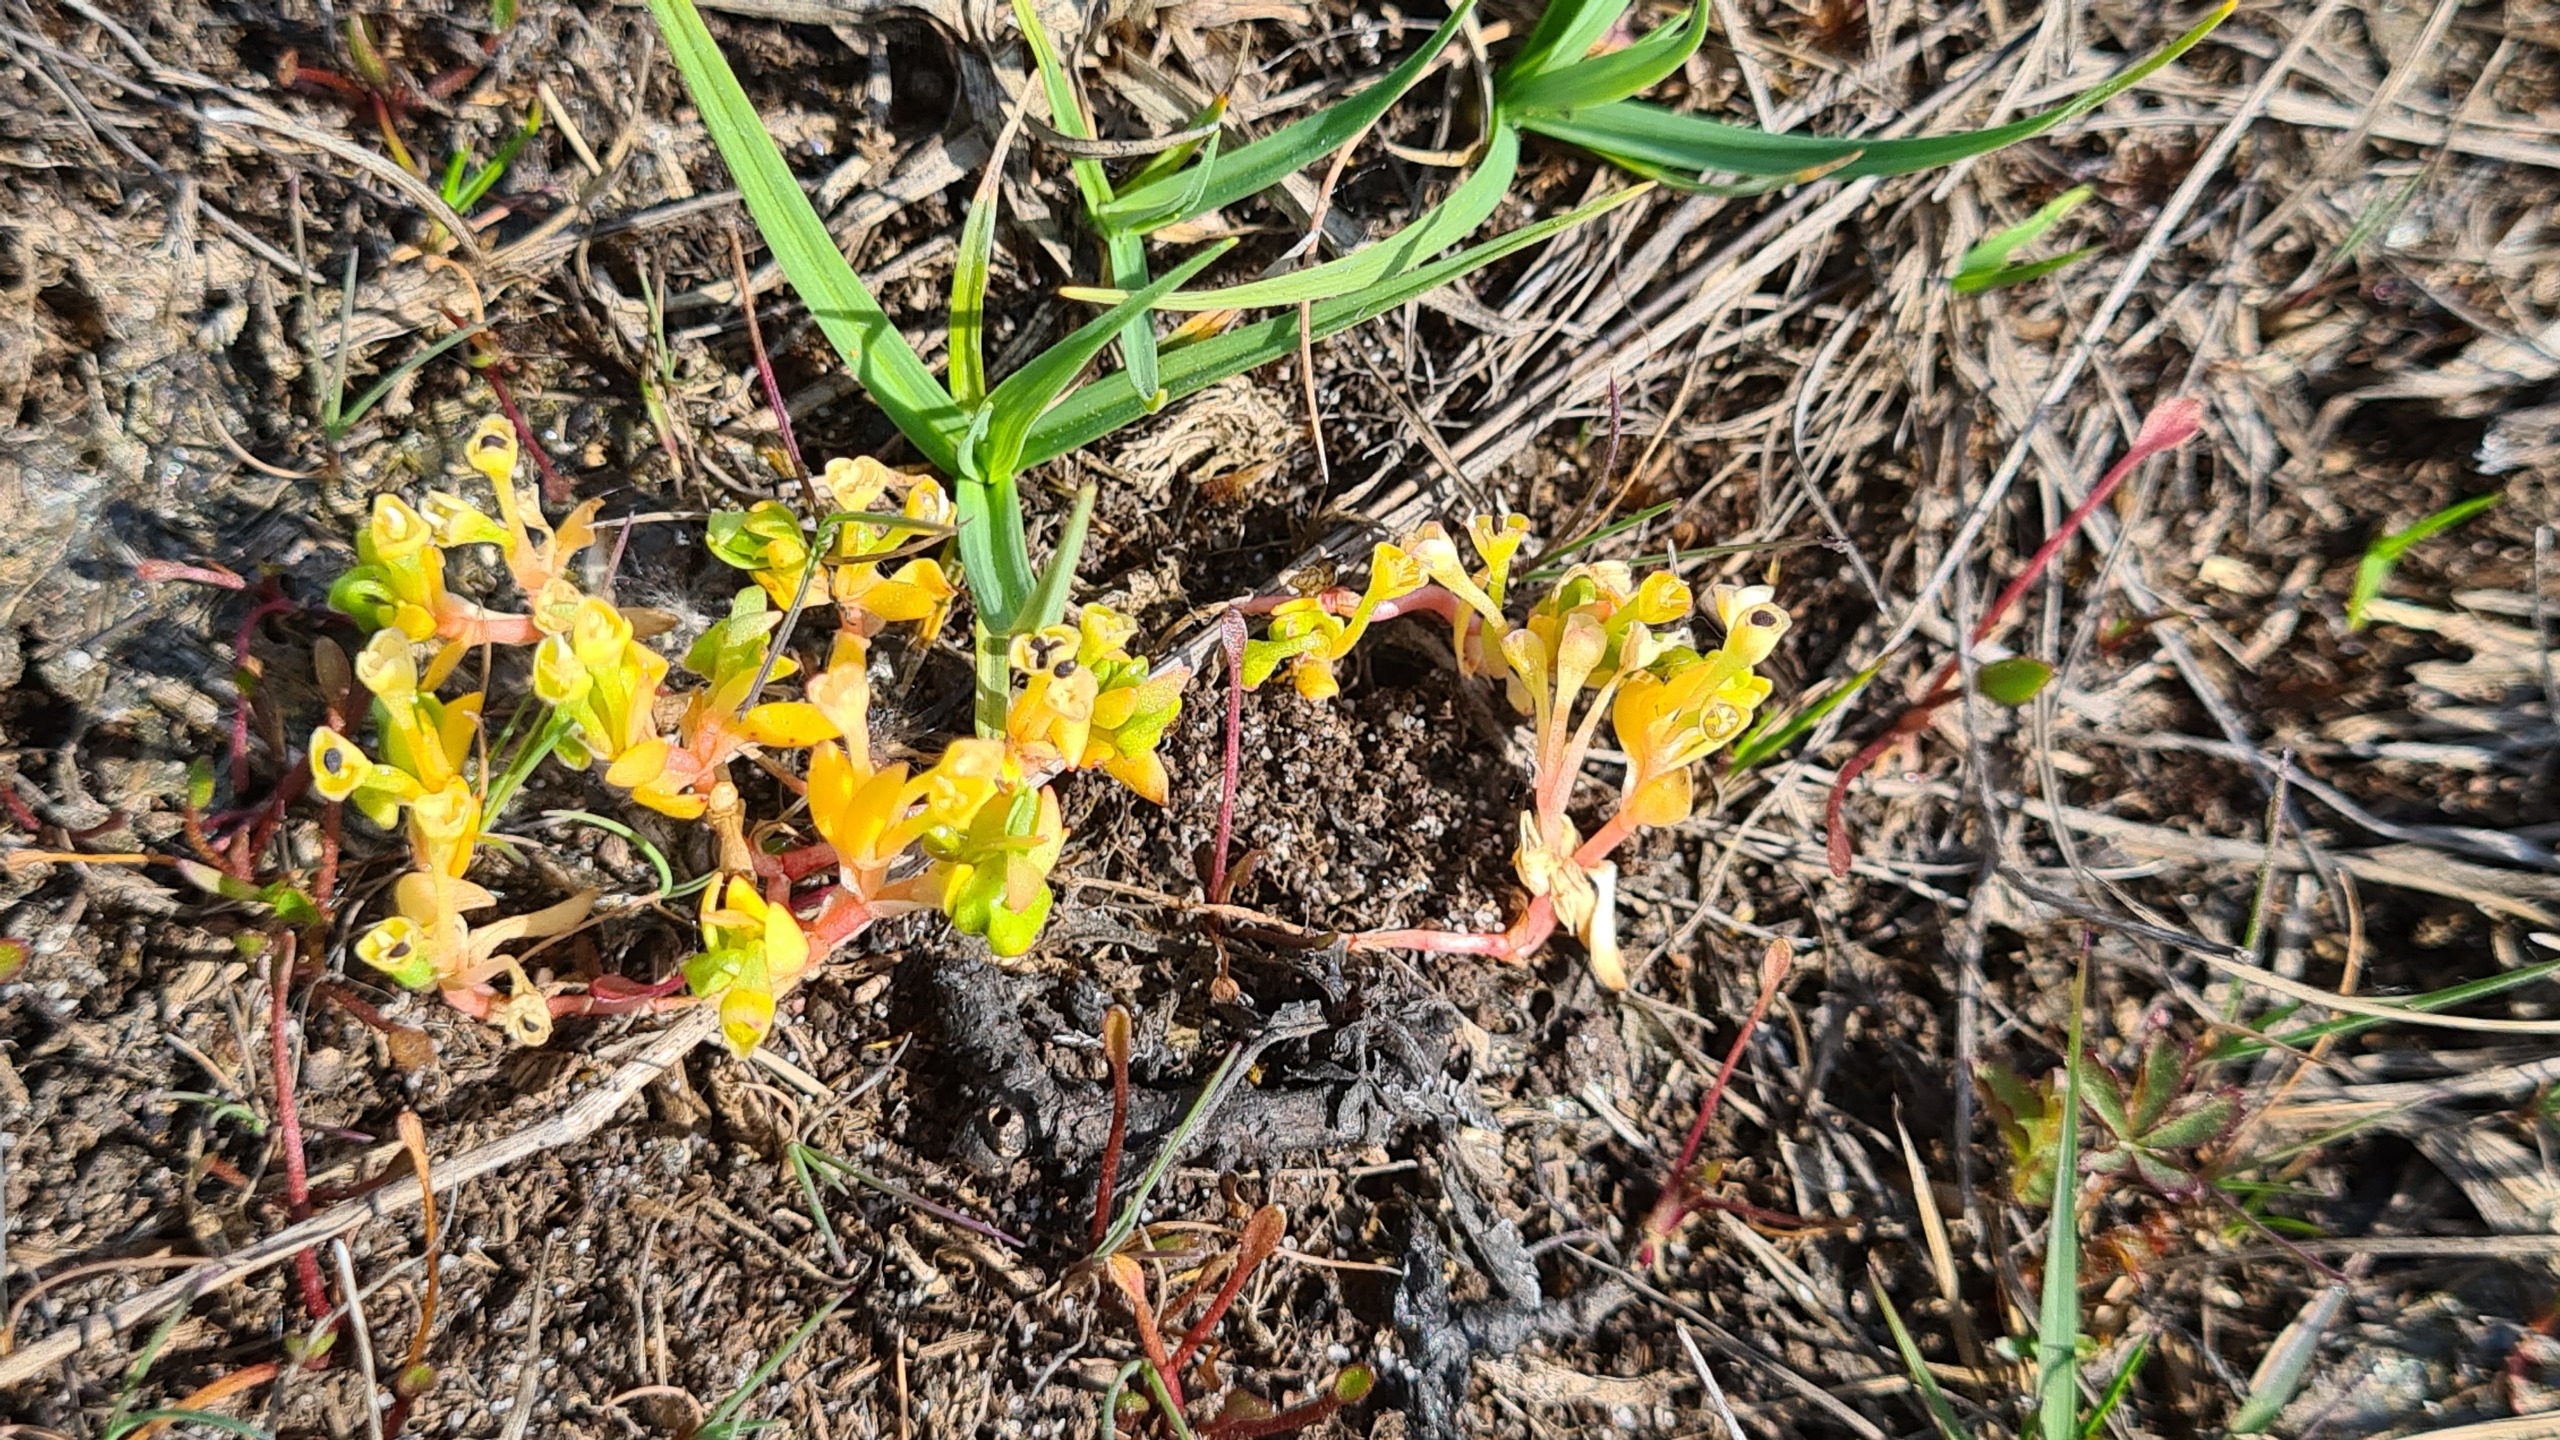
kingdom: Plantae
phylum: Tracheophyta
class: Magnoliopsida
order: Caryophyllales
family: Montiaceae
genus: Montia
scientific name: Montia arvensis
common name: Liden vandarve
